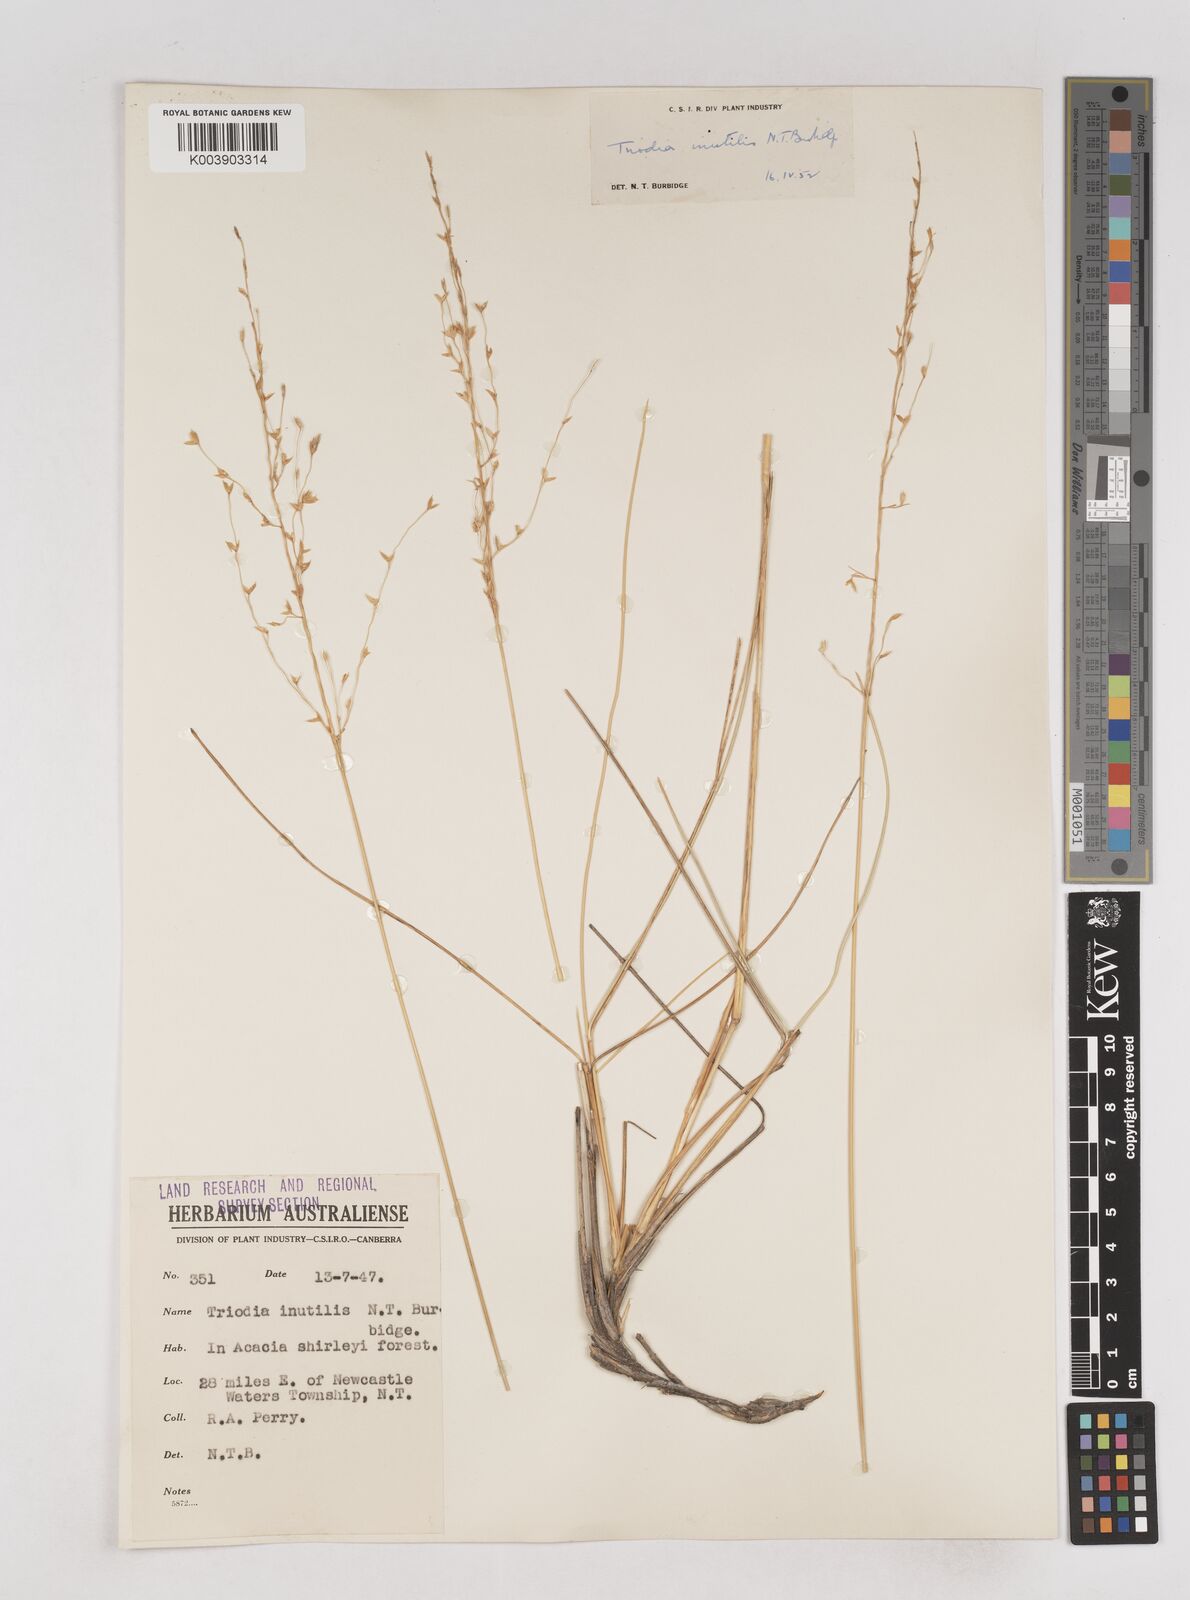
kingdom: Plantae
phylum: Tracheophyta
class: Liliopsida
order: Poales
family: Poaceae
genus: Triodia
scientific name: Triodia inutilis
